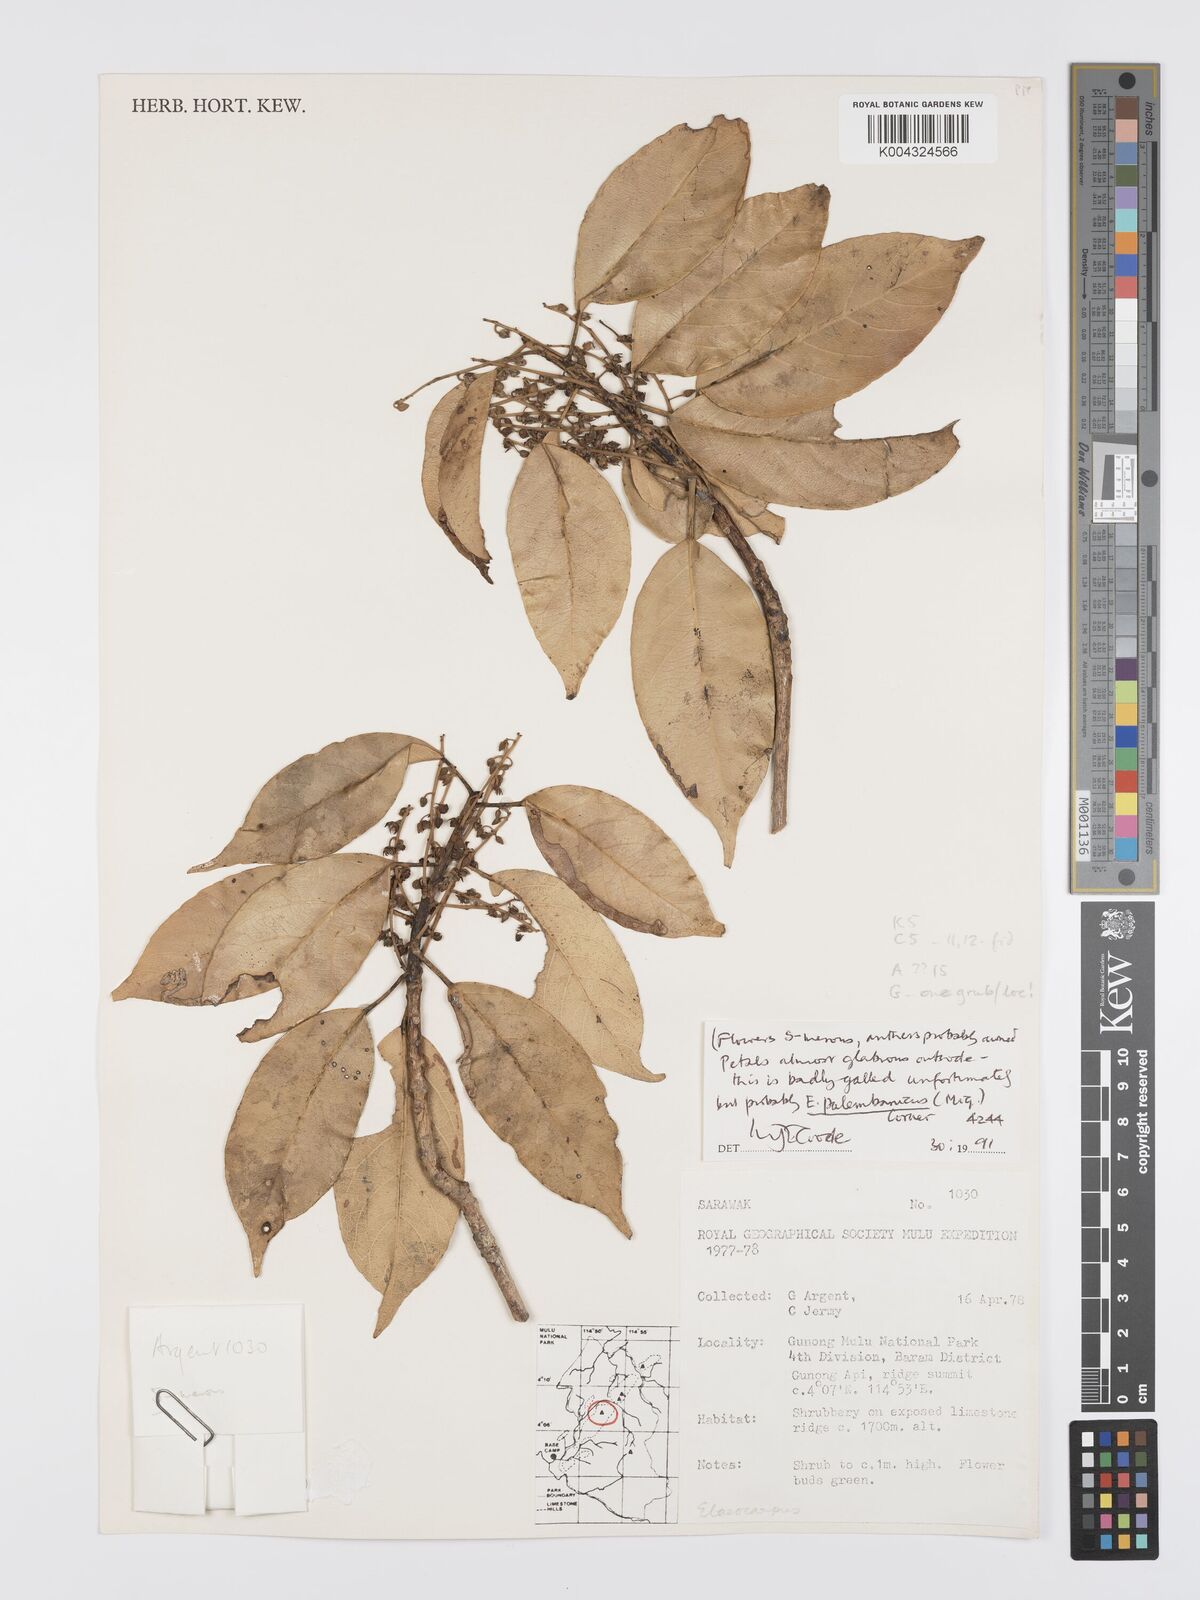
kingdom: Plantae
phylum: Tracheophyta
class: Magnoliopsida
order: Oxalidales
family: Elaeocarpaceae
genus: Elaeocarpus
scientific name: Elaeocarpus palembanicus
